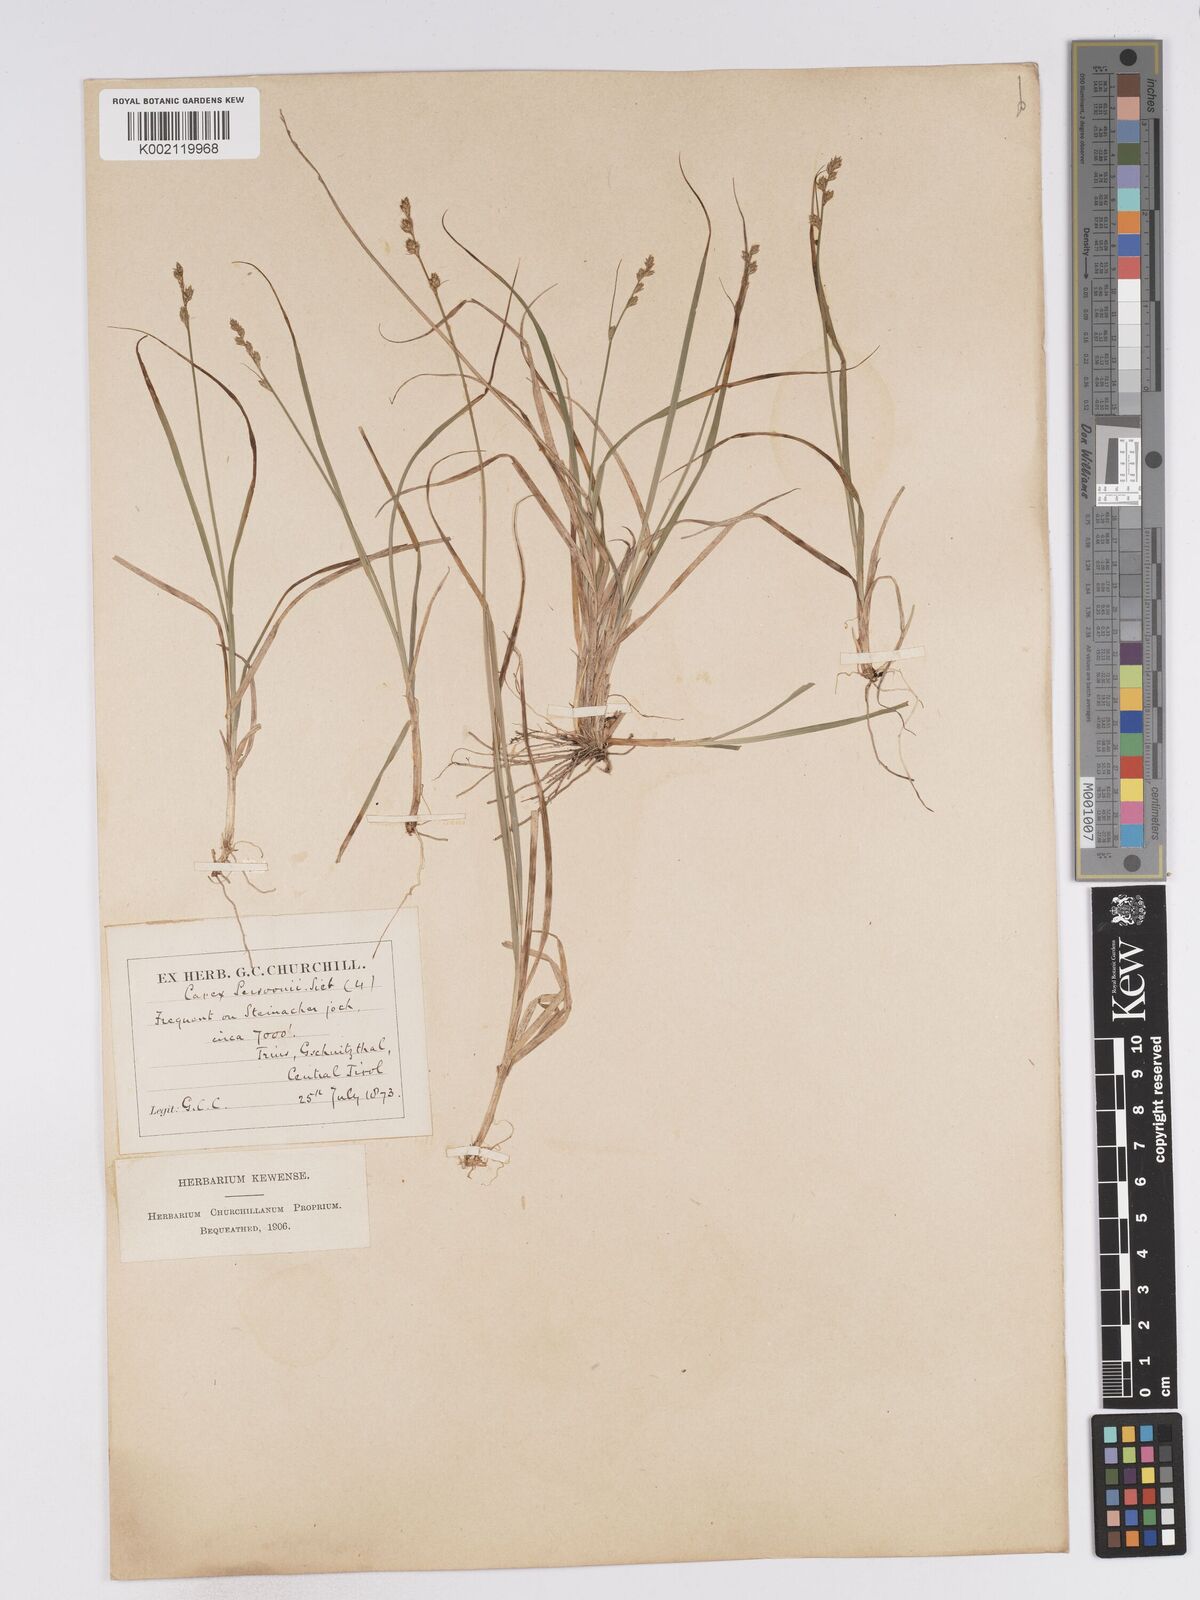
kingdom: Plantae
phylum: Tracheophyta
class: Liliopsida
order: Poales
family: Cyperaceae
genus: Carex
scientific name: Carex canescens
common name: White sedge
